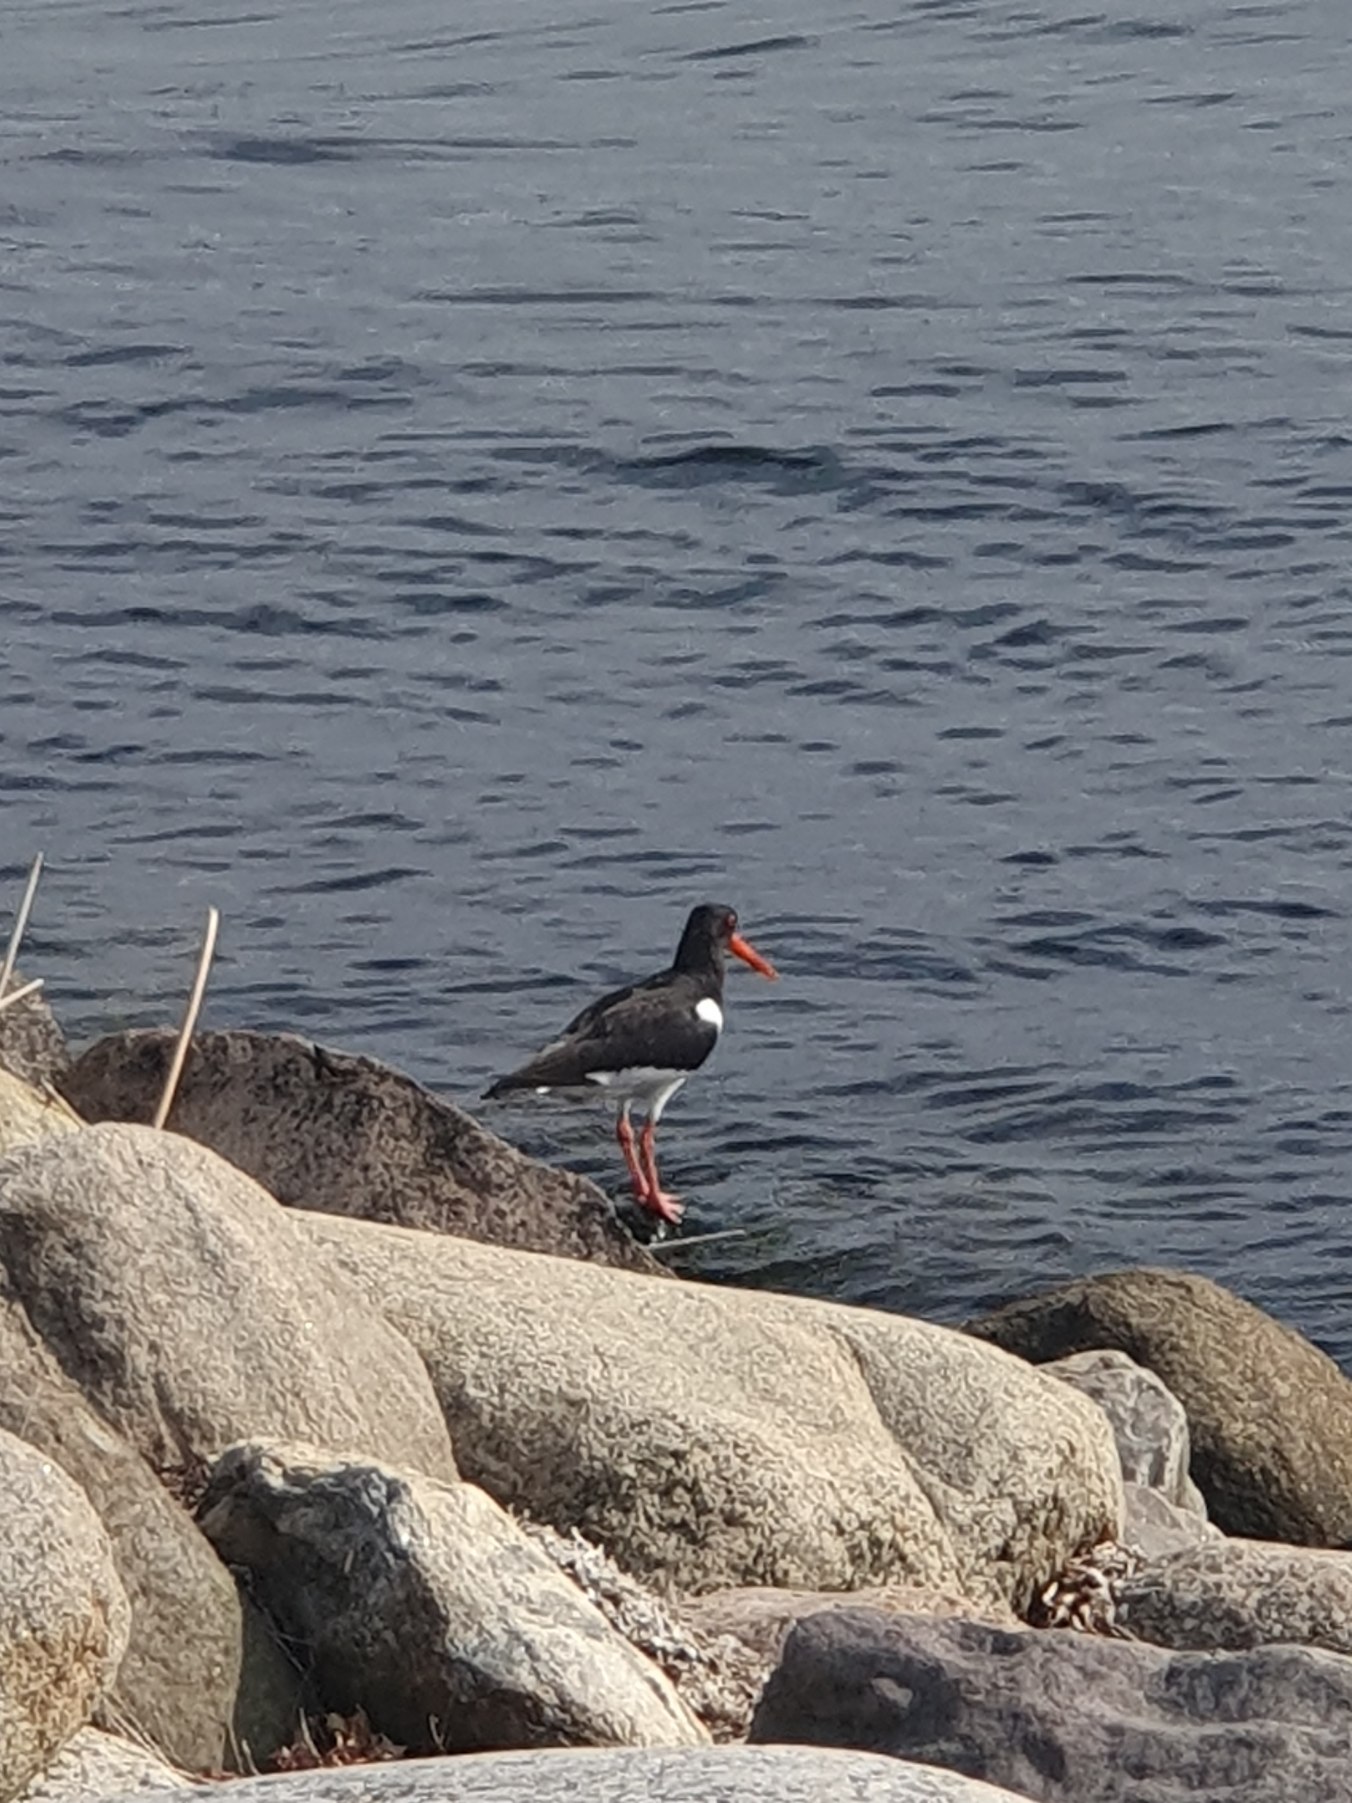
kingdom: Animalia
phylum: Chordata
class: Aves
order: Charadriiformes
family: Haematopodidae
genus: Haematopus
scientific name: Haematopus ostralegus
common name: Strandskade
